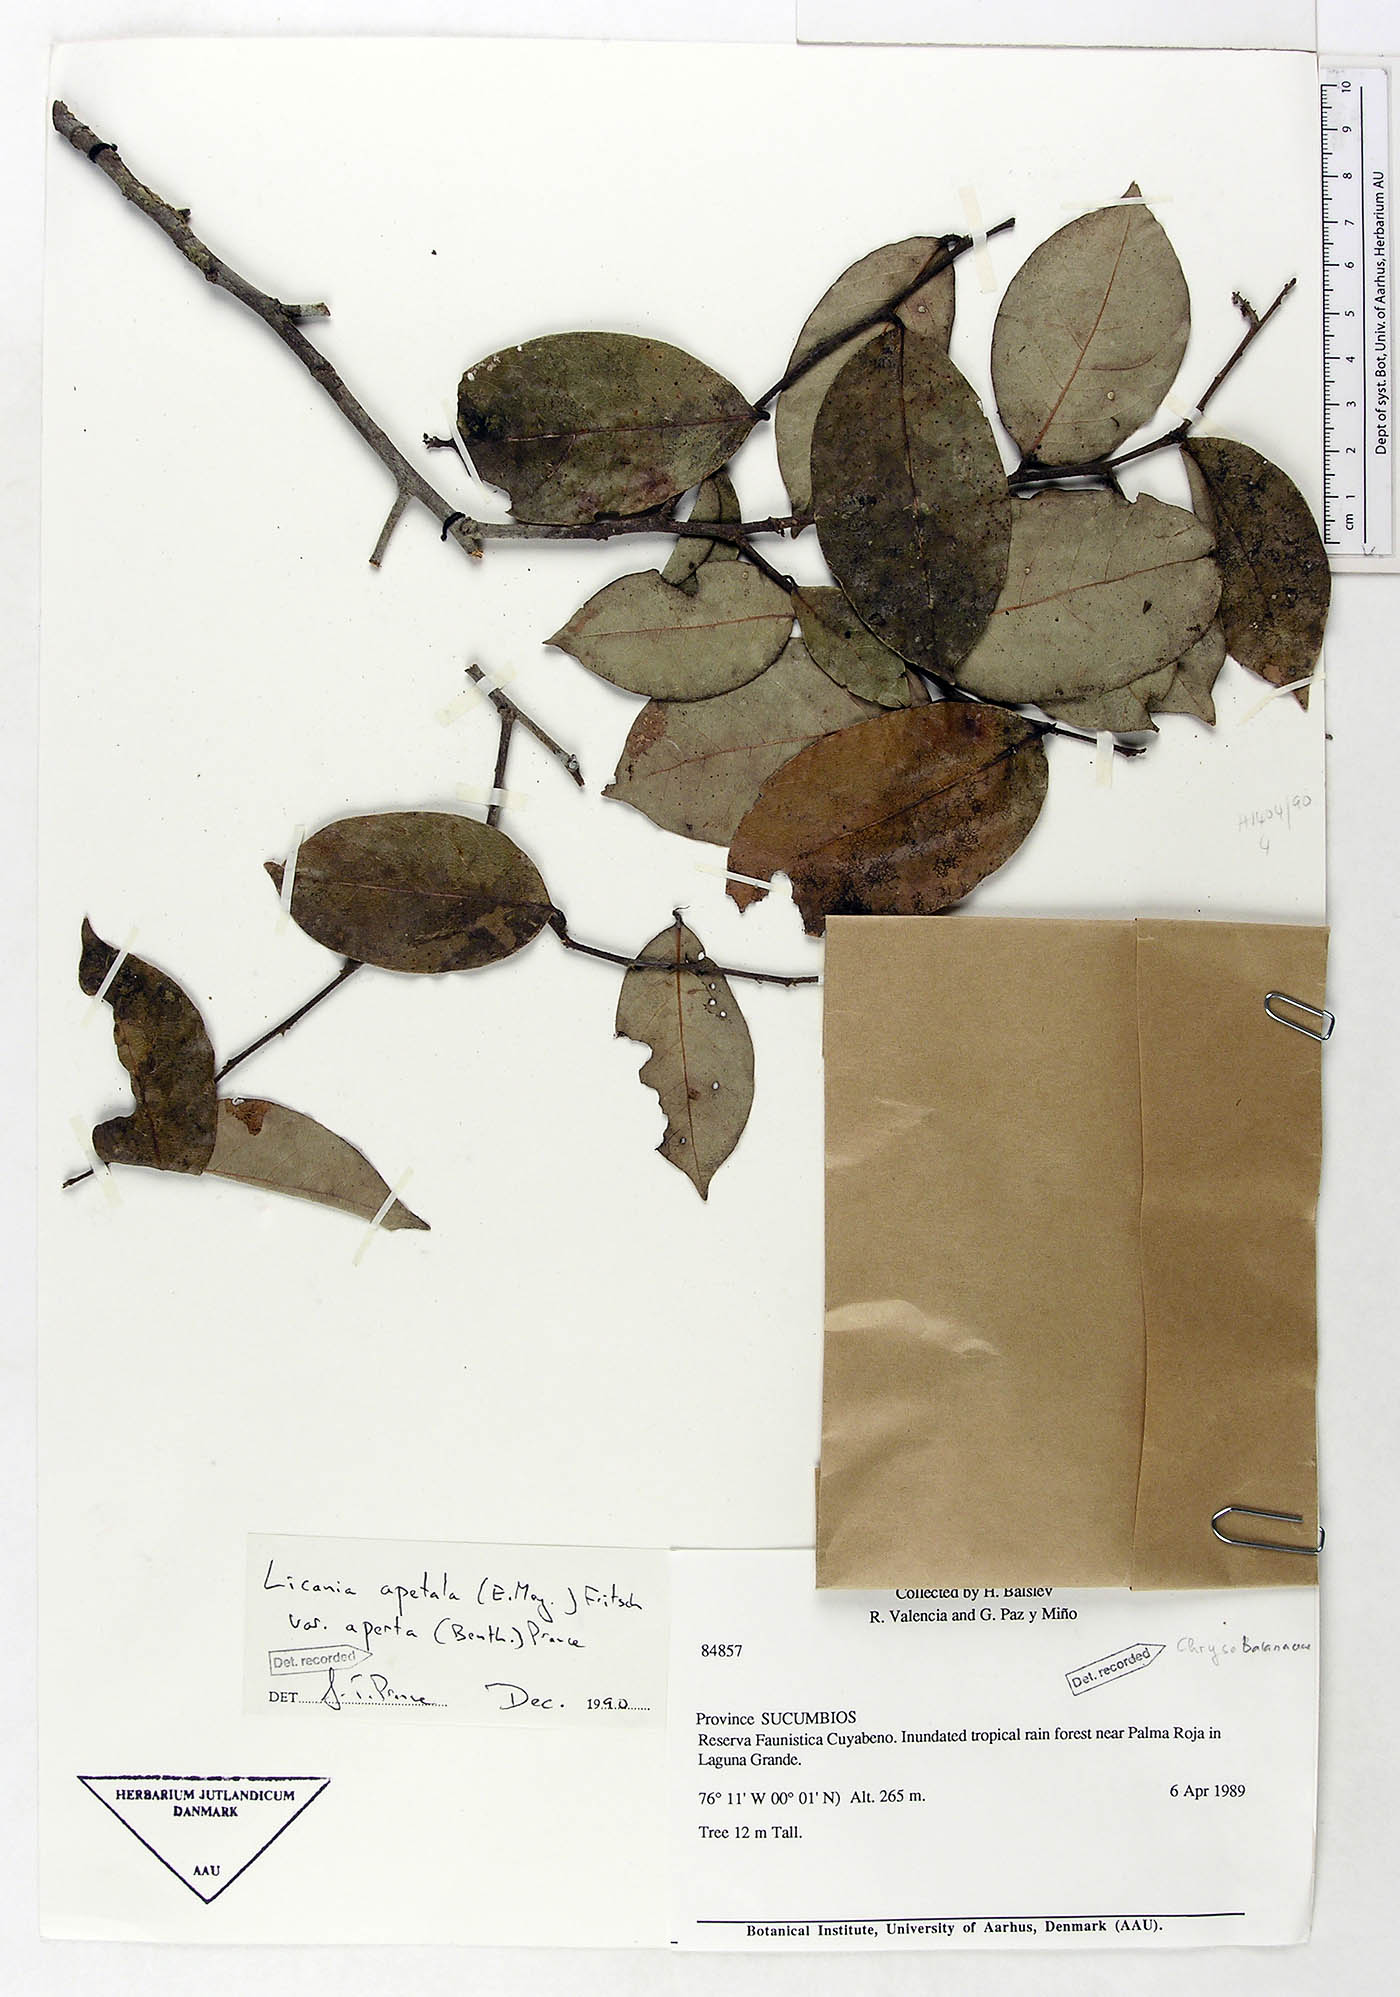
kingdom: Plantae
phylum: Tracheophyta
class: Magnoliopsida
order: Malpighiales
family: Chrysobalanaceae
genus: Leptobalanus
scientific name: Leptobalanus apetalus
